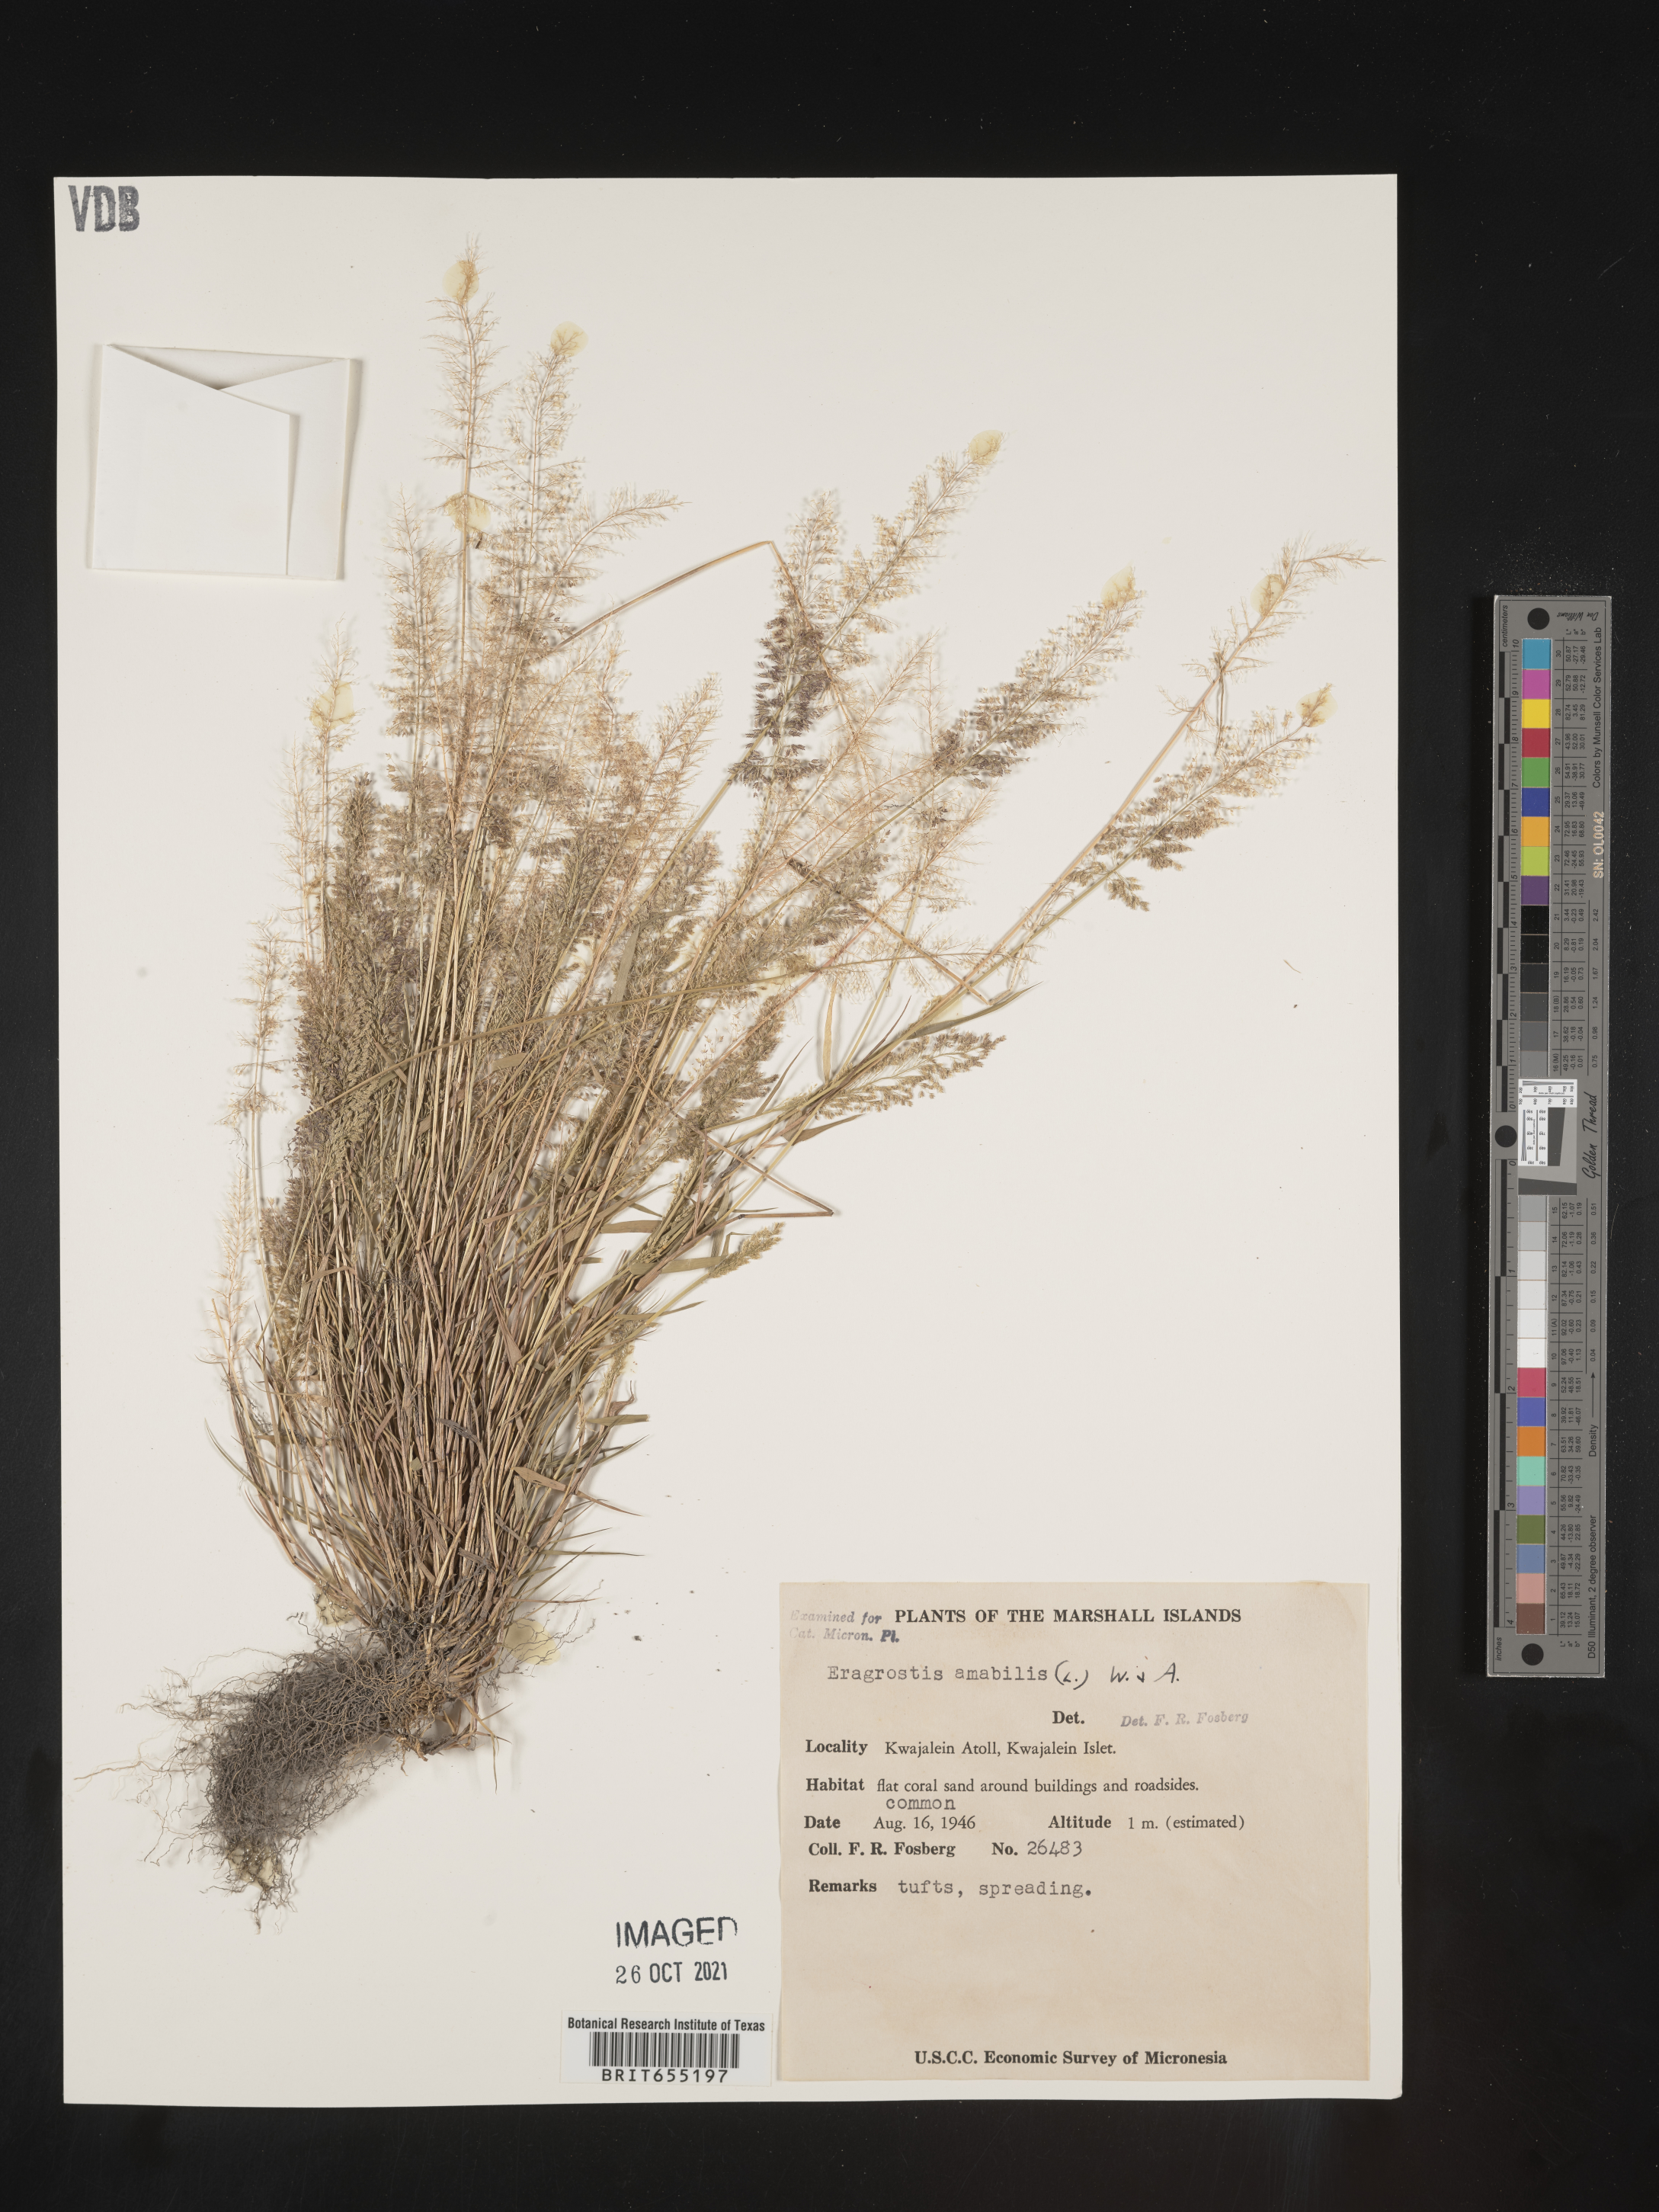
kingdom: Plantae
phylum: Tracheophyta
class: Liliopsida
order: Poales
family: Poaceae
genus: Eragrostis
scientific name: Eragrostis
